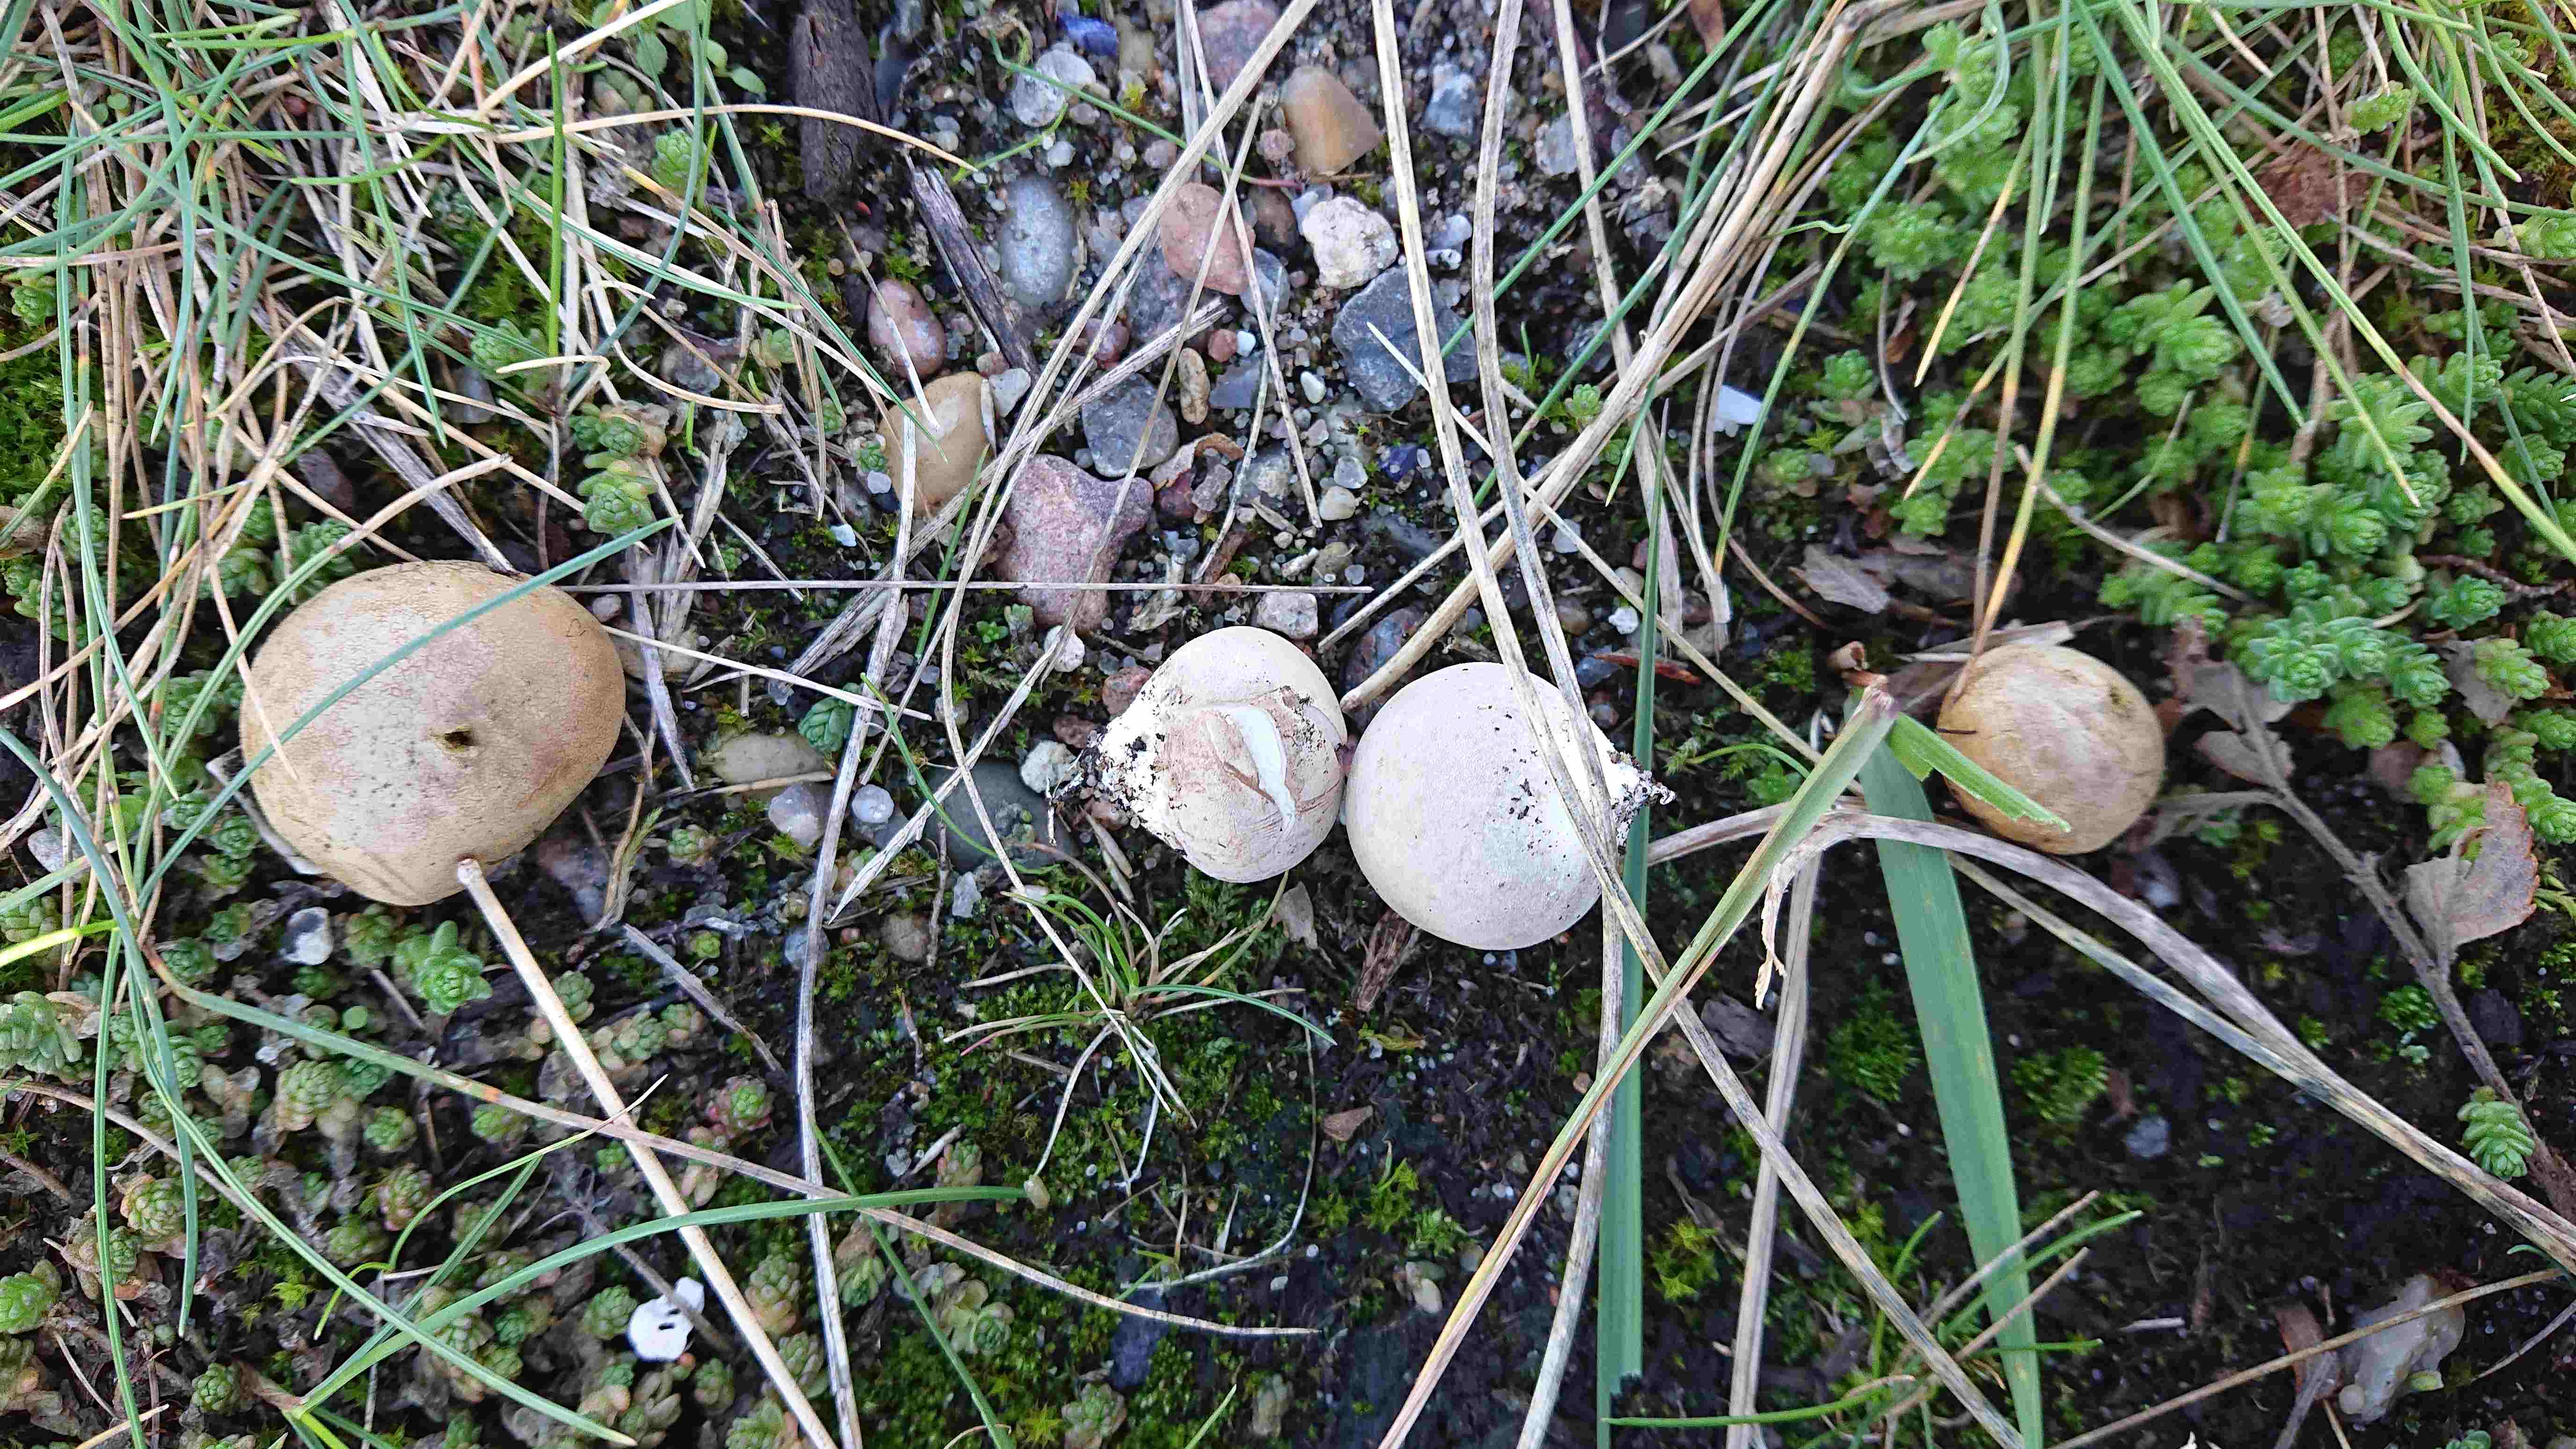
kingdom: Fungi
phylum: Basidiomycota
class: Agaricomycetes
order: Agaricales
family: Agaricaceae
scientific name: Agaricaceae
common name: champignonfamilien
